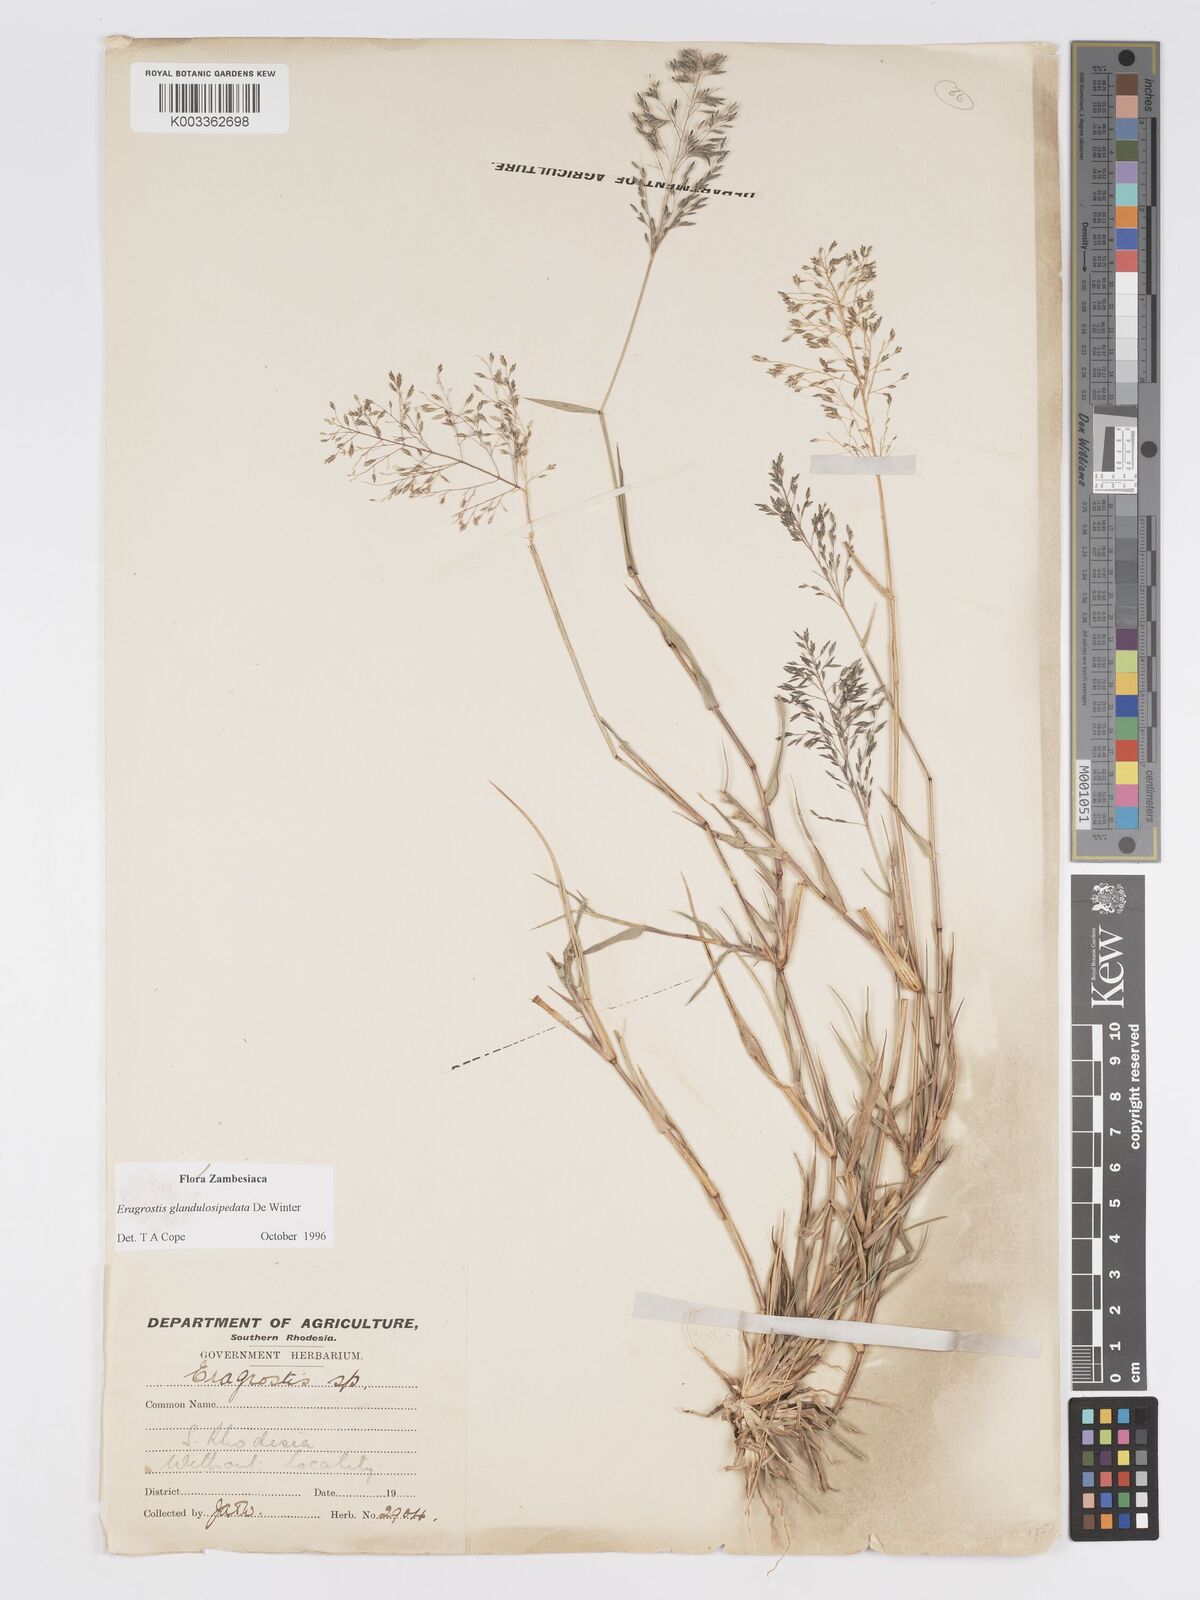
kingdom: Plantae
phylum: Tracheophyta
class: Liliopsida
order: Poales
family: Poaceae
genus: Eragrostis
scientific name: Eragrostis glandulosipedata
